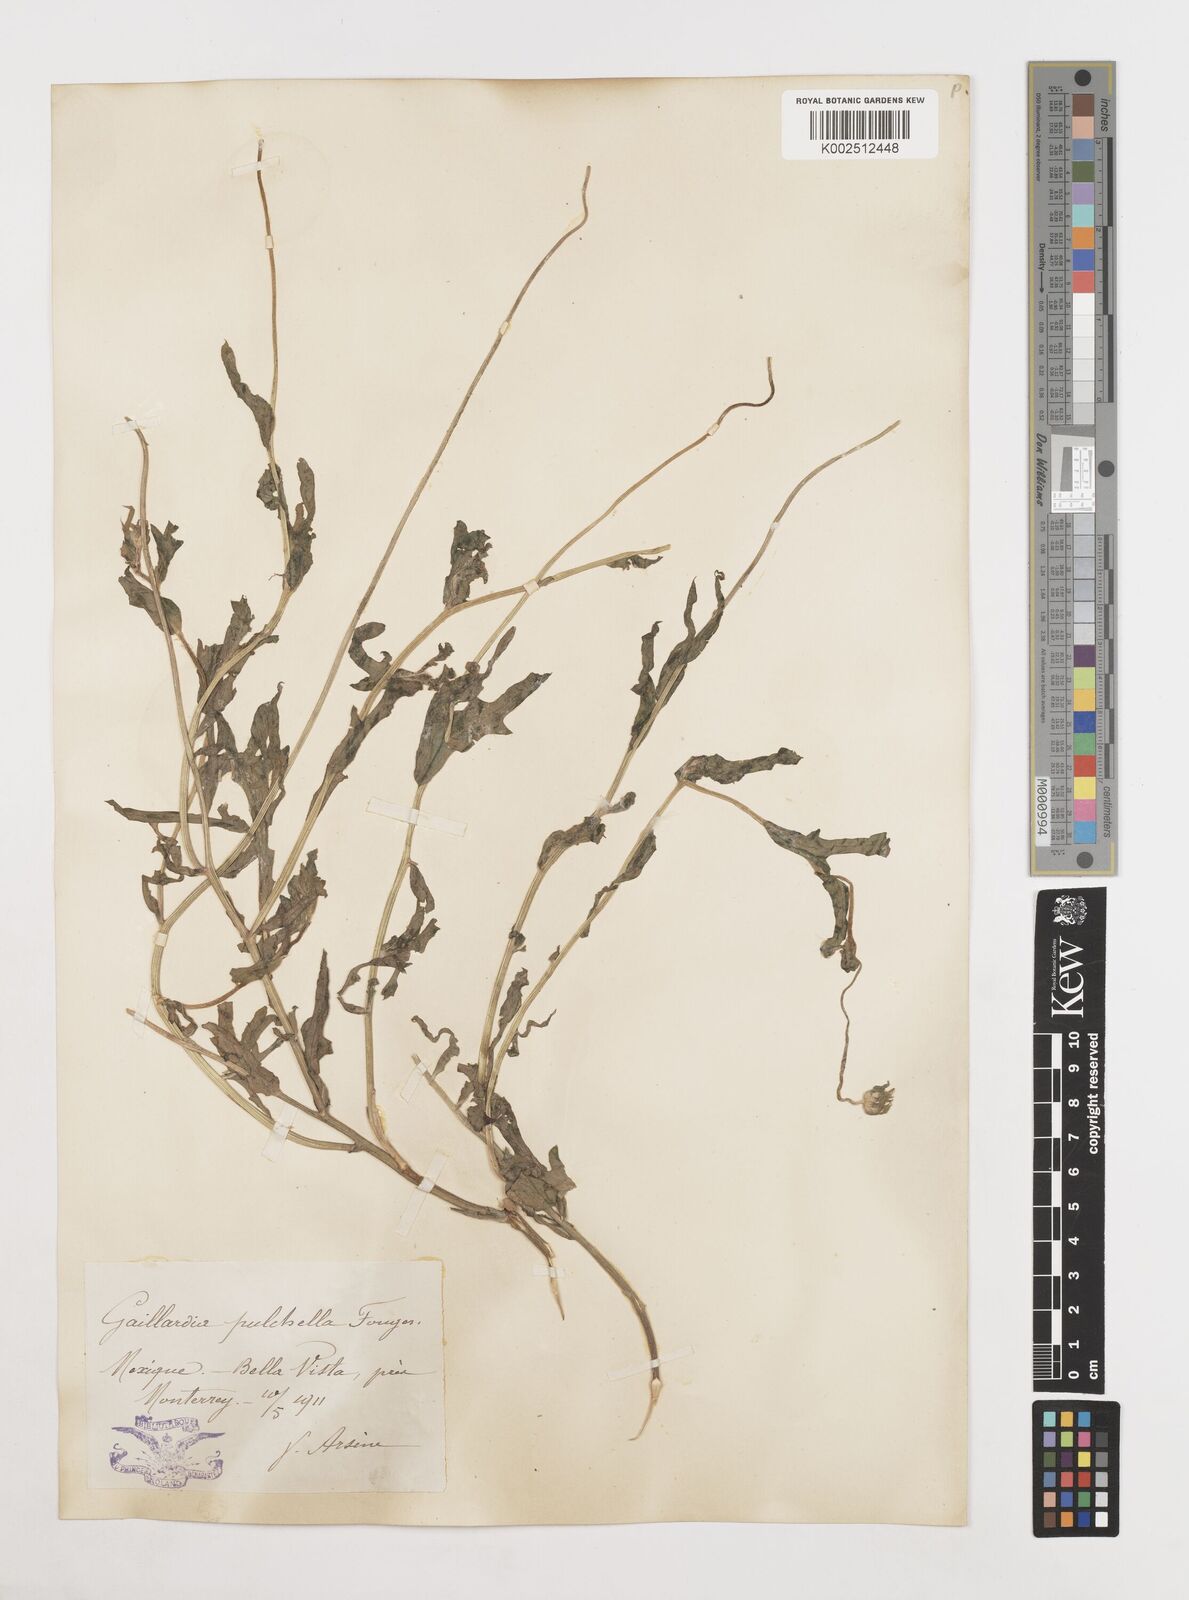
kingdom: Plantae
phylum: Tracheophyta
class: Magnoliopsida
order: Asterales
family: Asteraceae
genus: Gaillardia
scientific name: Gaillardia pulchella
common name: Firewheel
